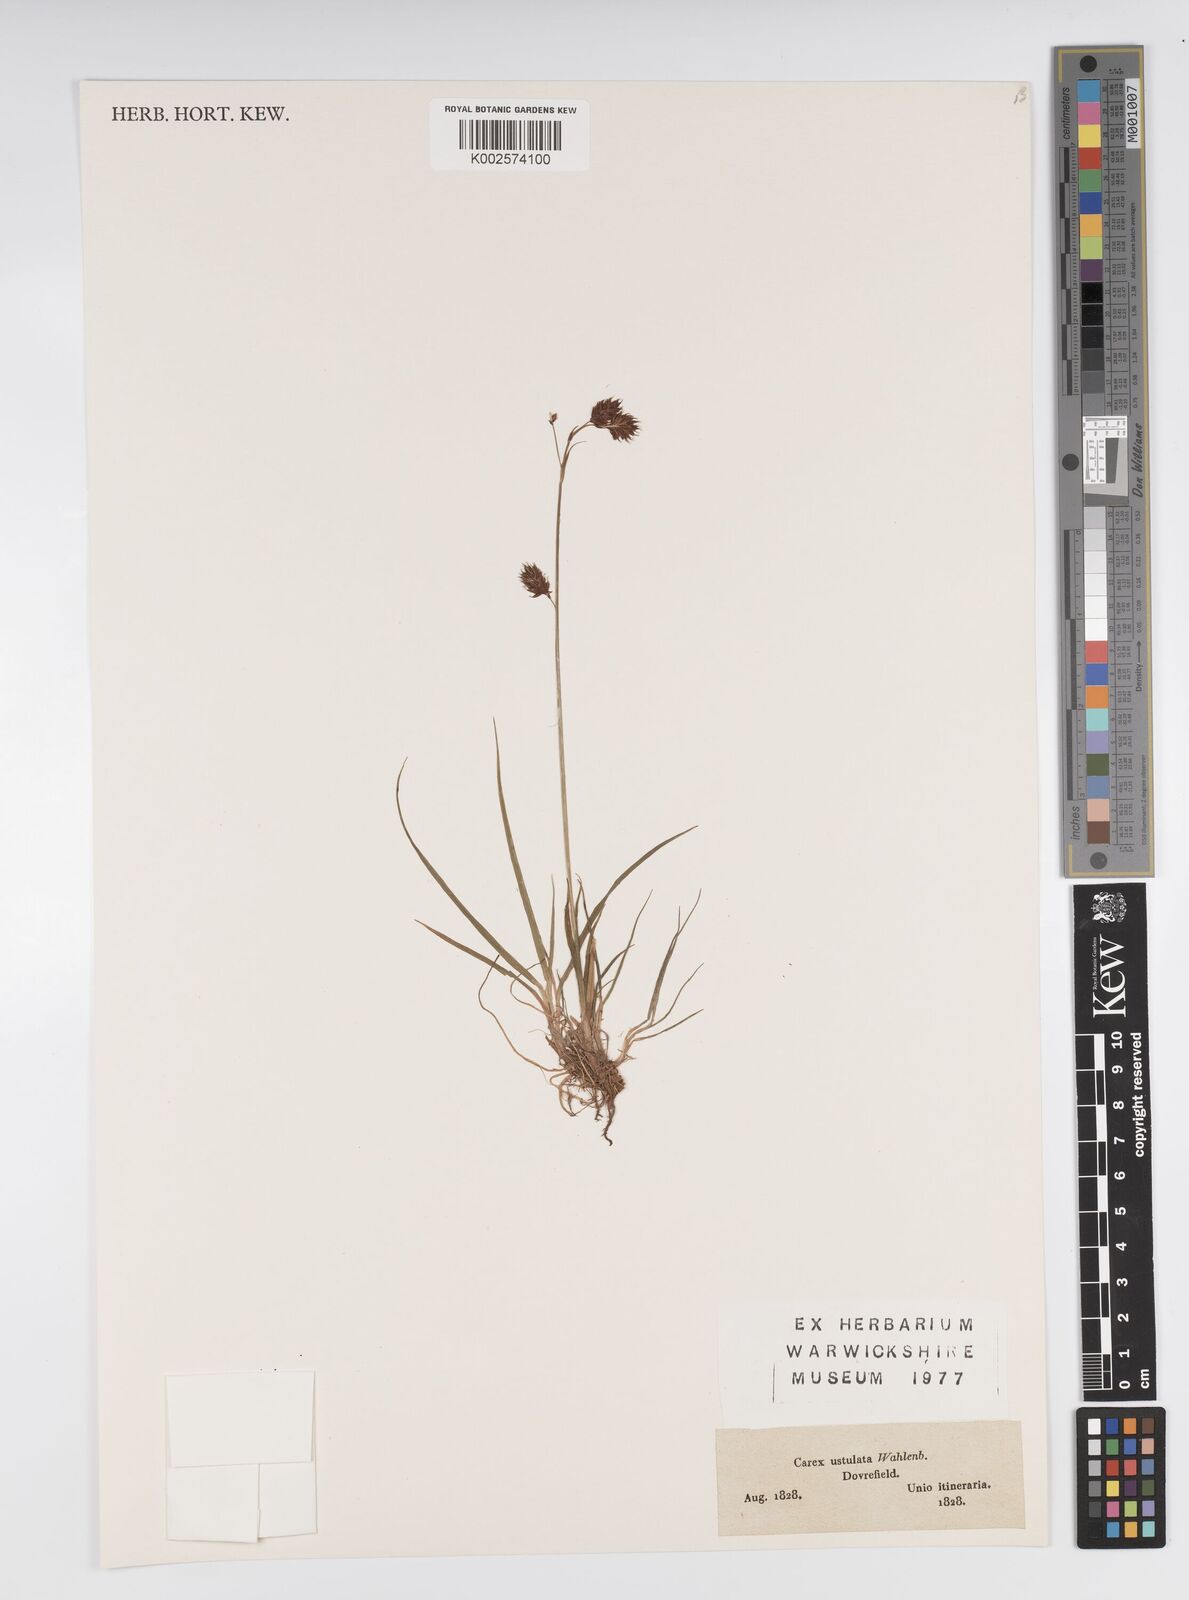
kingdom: Plantae
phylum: Tracheophyta
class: Liliopsida
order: Poales
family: Cyperaceae
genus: Carex
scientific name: Carex atrofusca
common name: Scorched alpine-sedge
